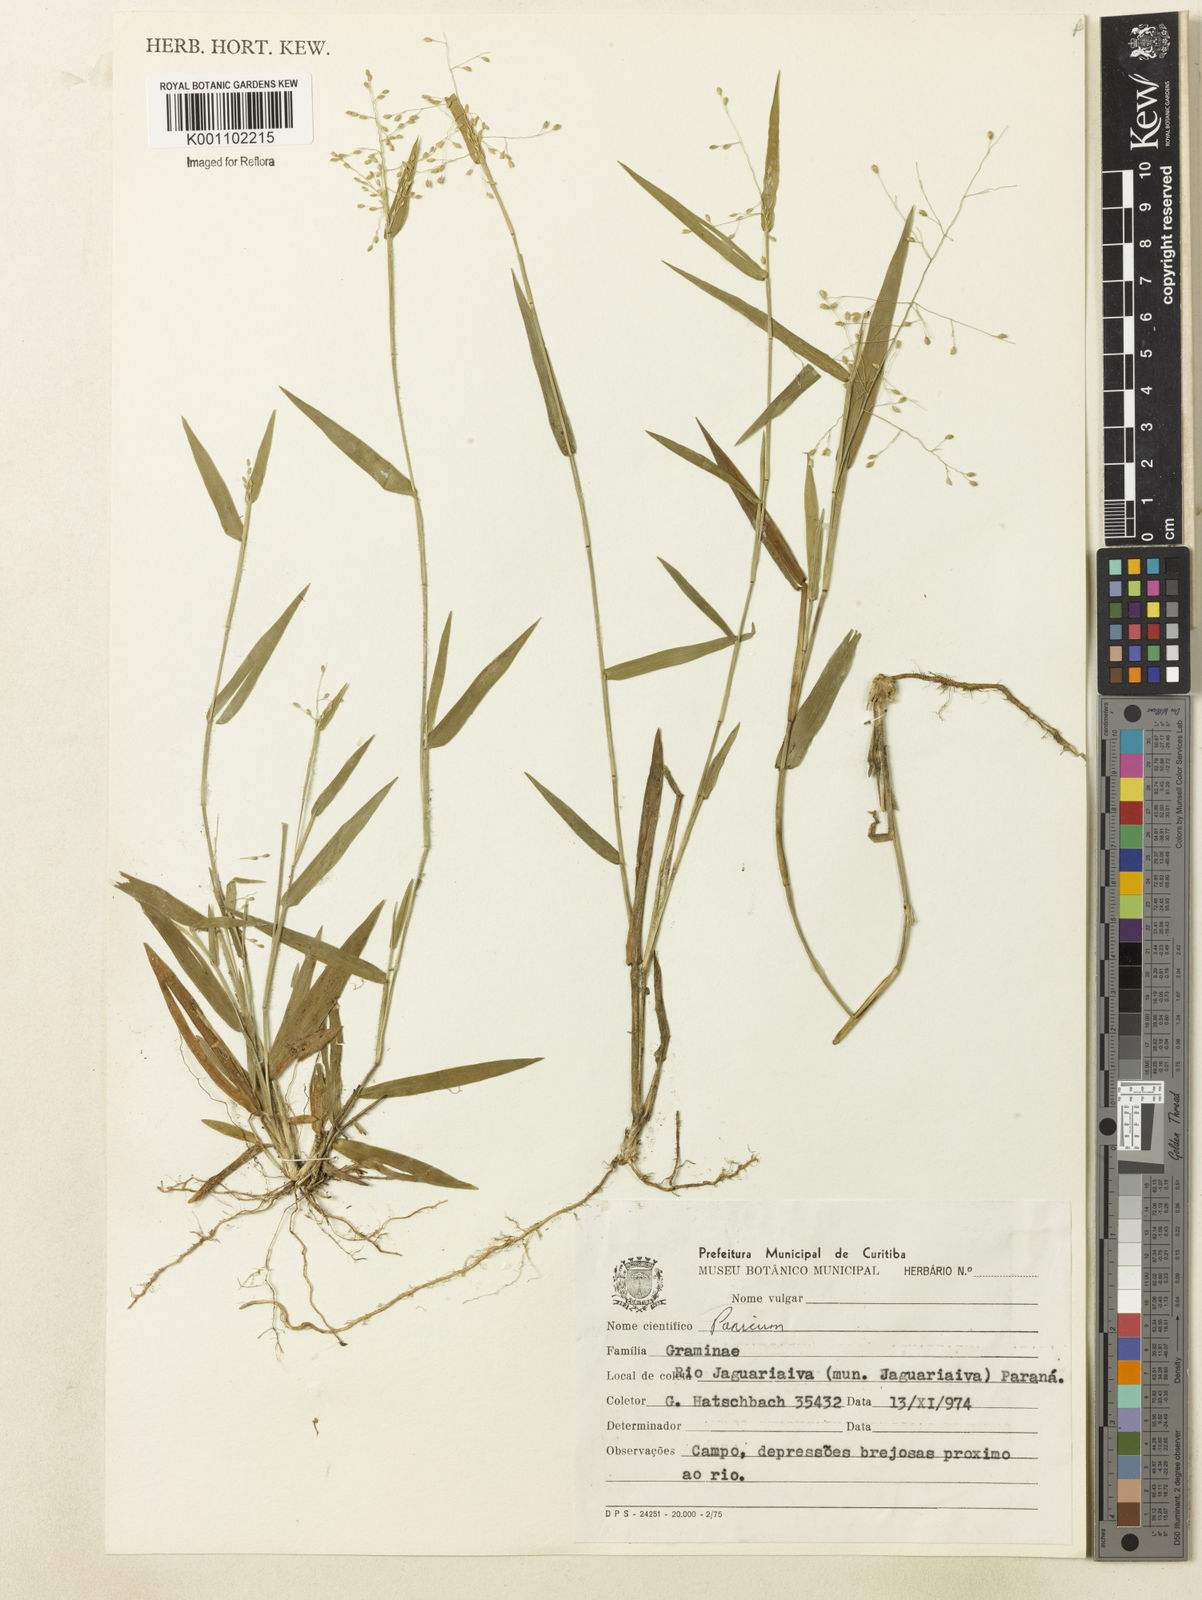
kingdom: Plantae
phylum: Tracheophyta
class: Liliopsida
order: Poales
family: Poaceae
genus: Dichanthelium
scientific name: Dichanthelium sabulorum
